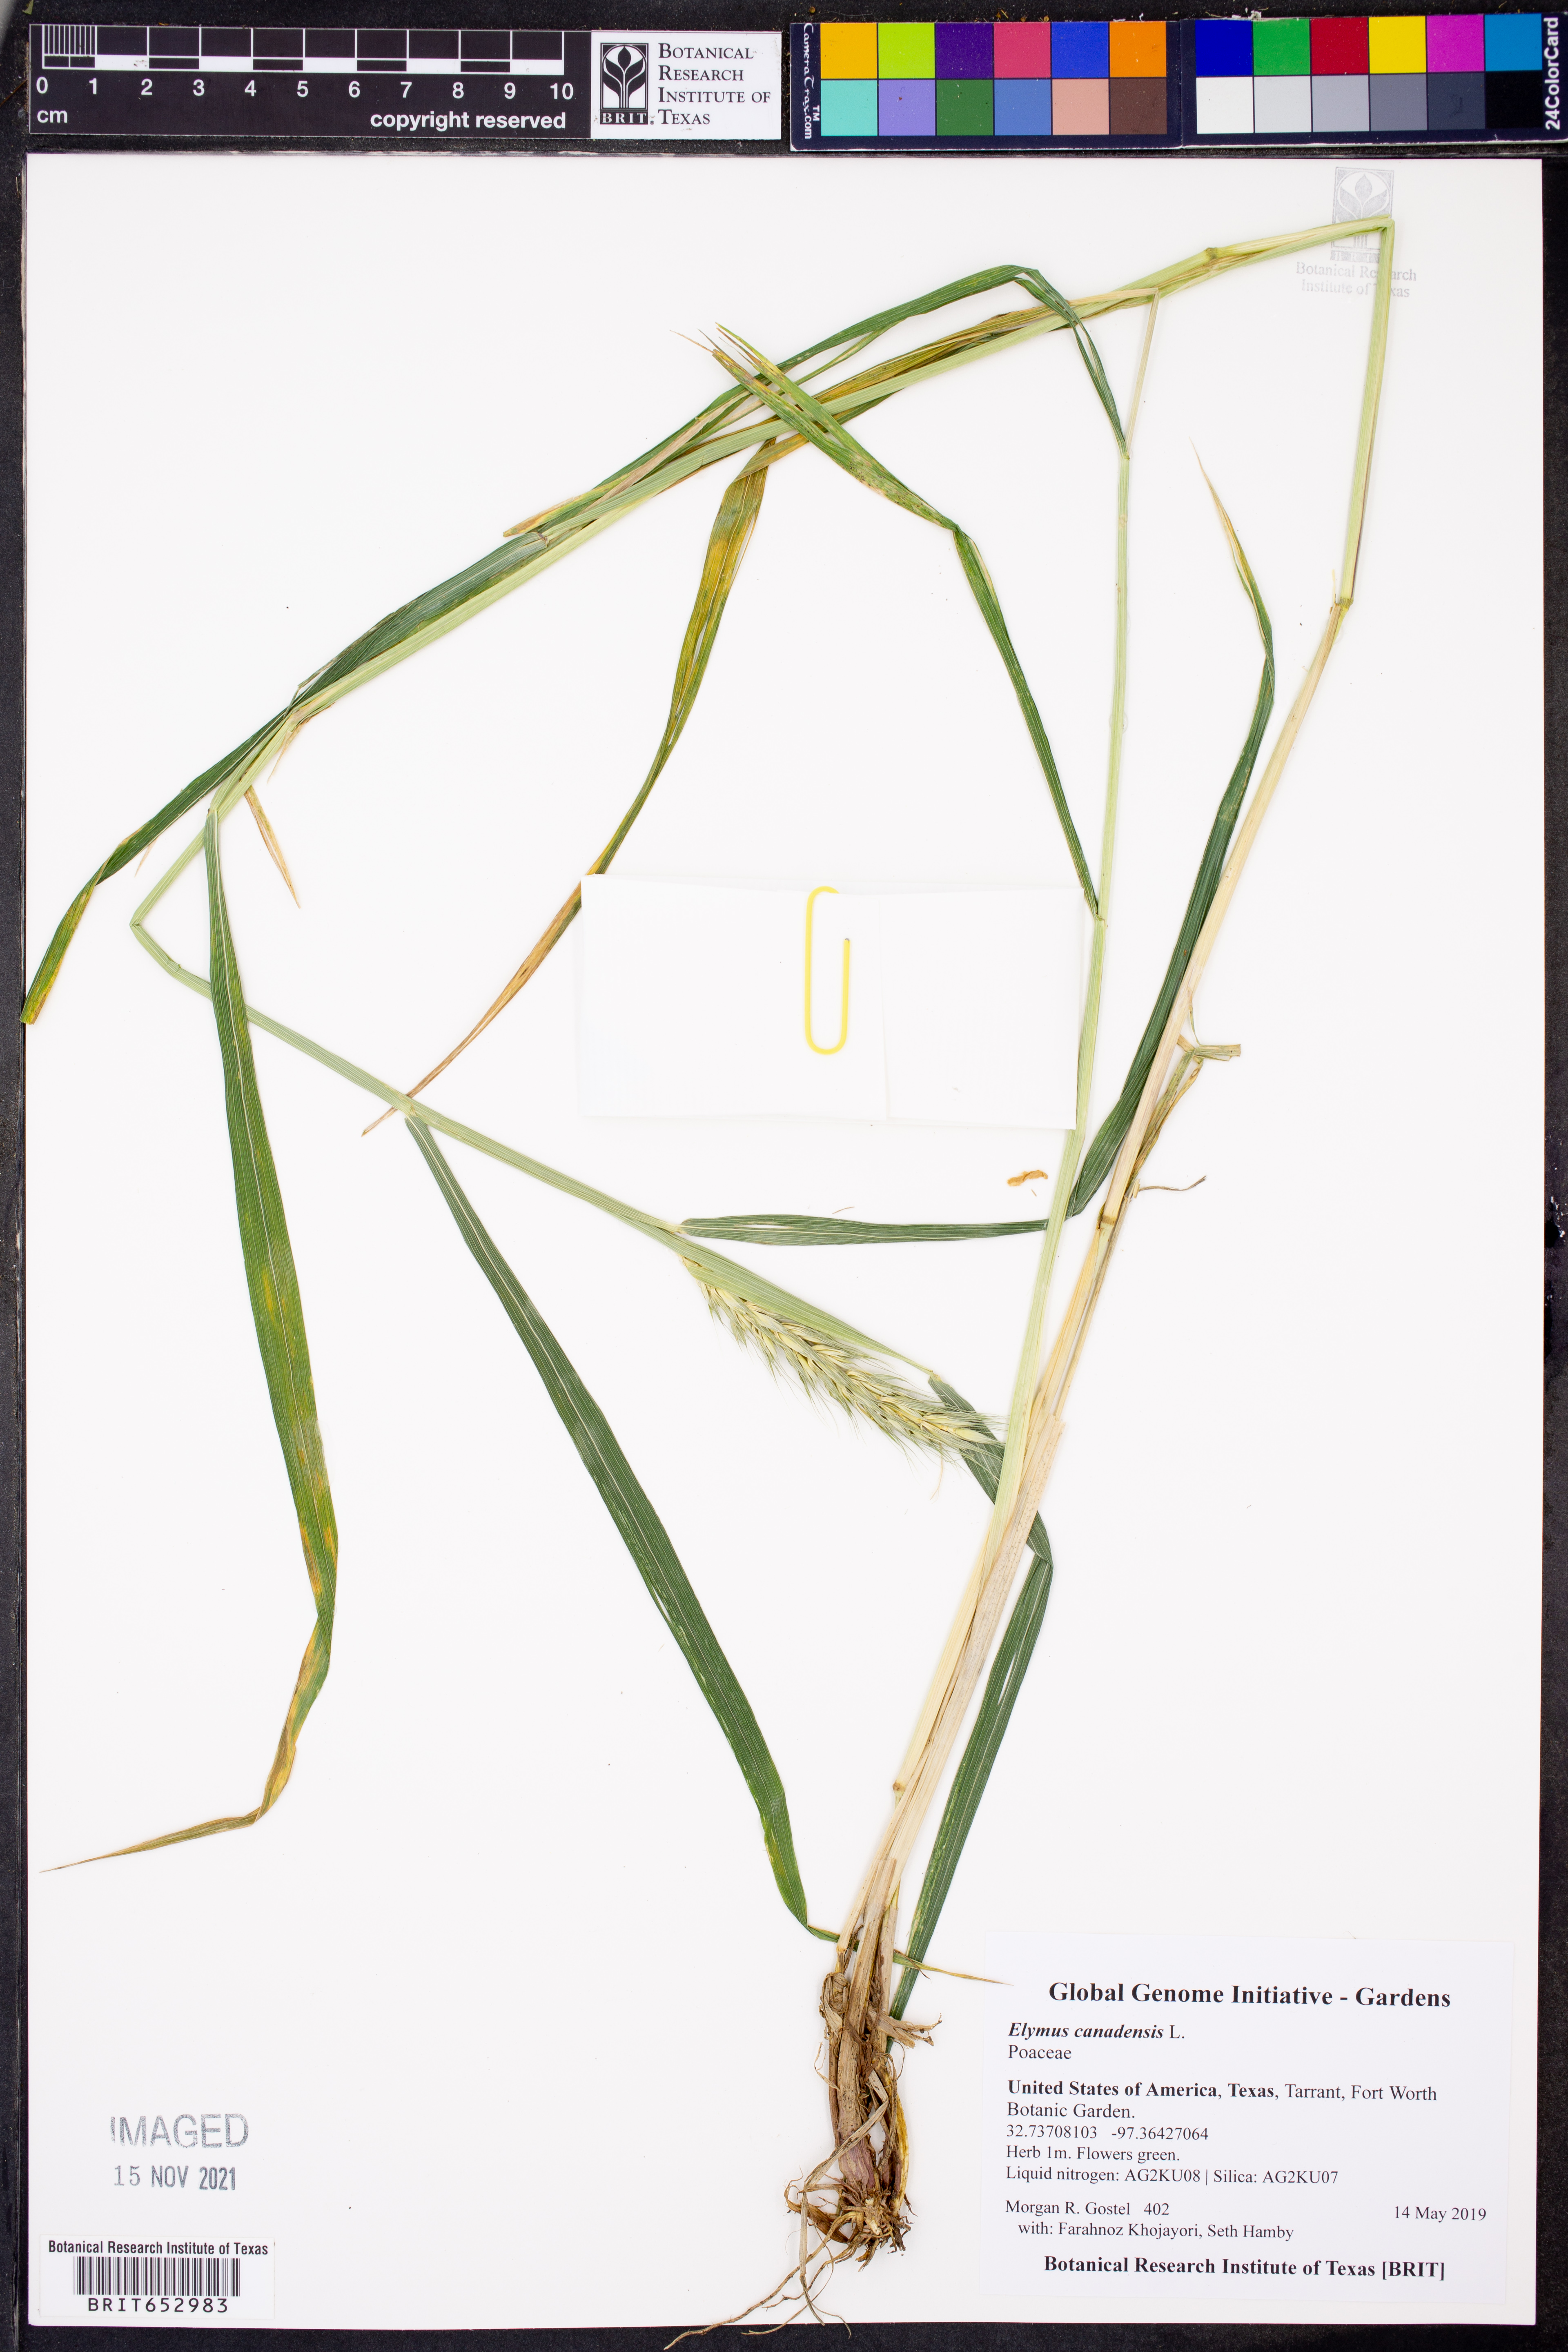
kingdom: Plantae
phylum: Tracheophyta
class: Liliopsida
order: Poales
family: Poaceae
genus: Elymus
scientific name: Elymus canadensis
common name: Canada wild rye
